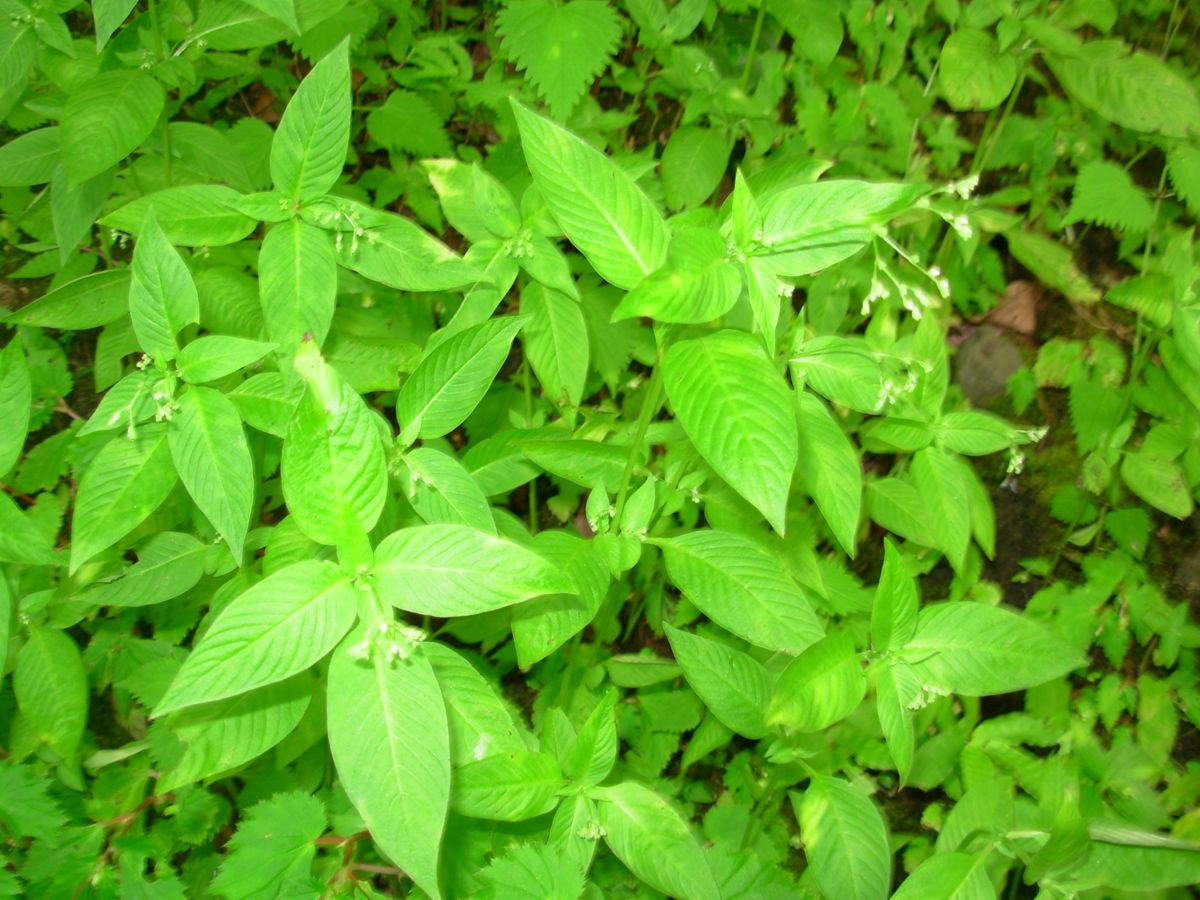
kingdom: Plantae
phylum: Tracheophyta
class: Magnoliopsida
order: Gentianales
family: Loganiaceae
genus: Mitreola
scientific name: Mitreola petiolata
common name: Lax hornpod
